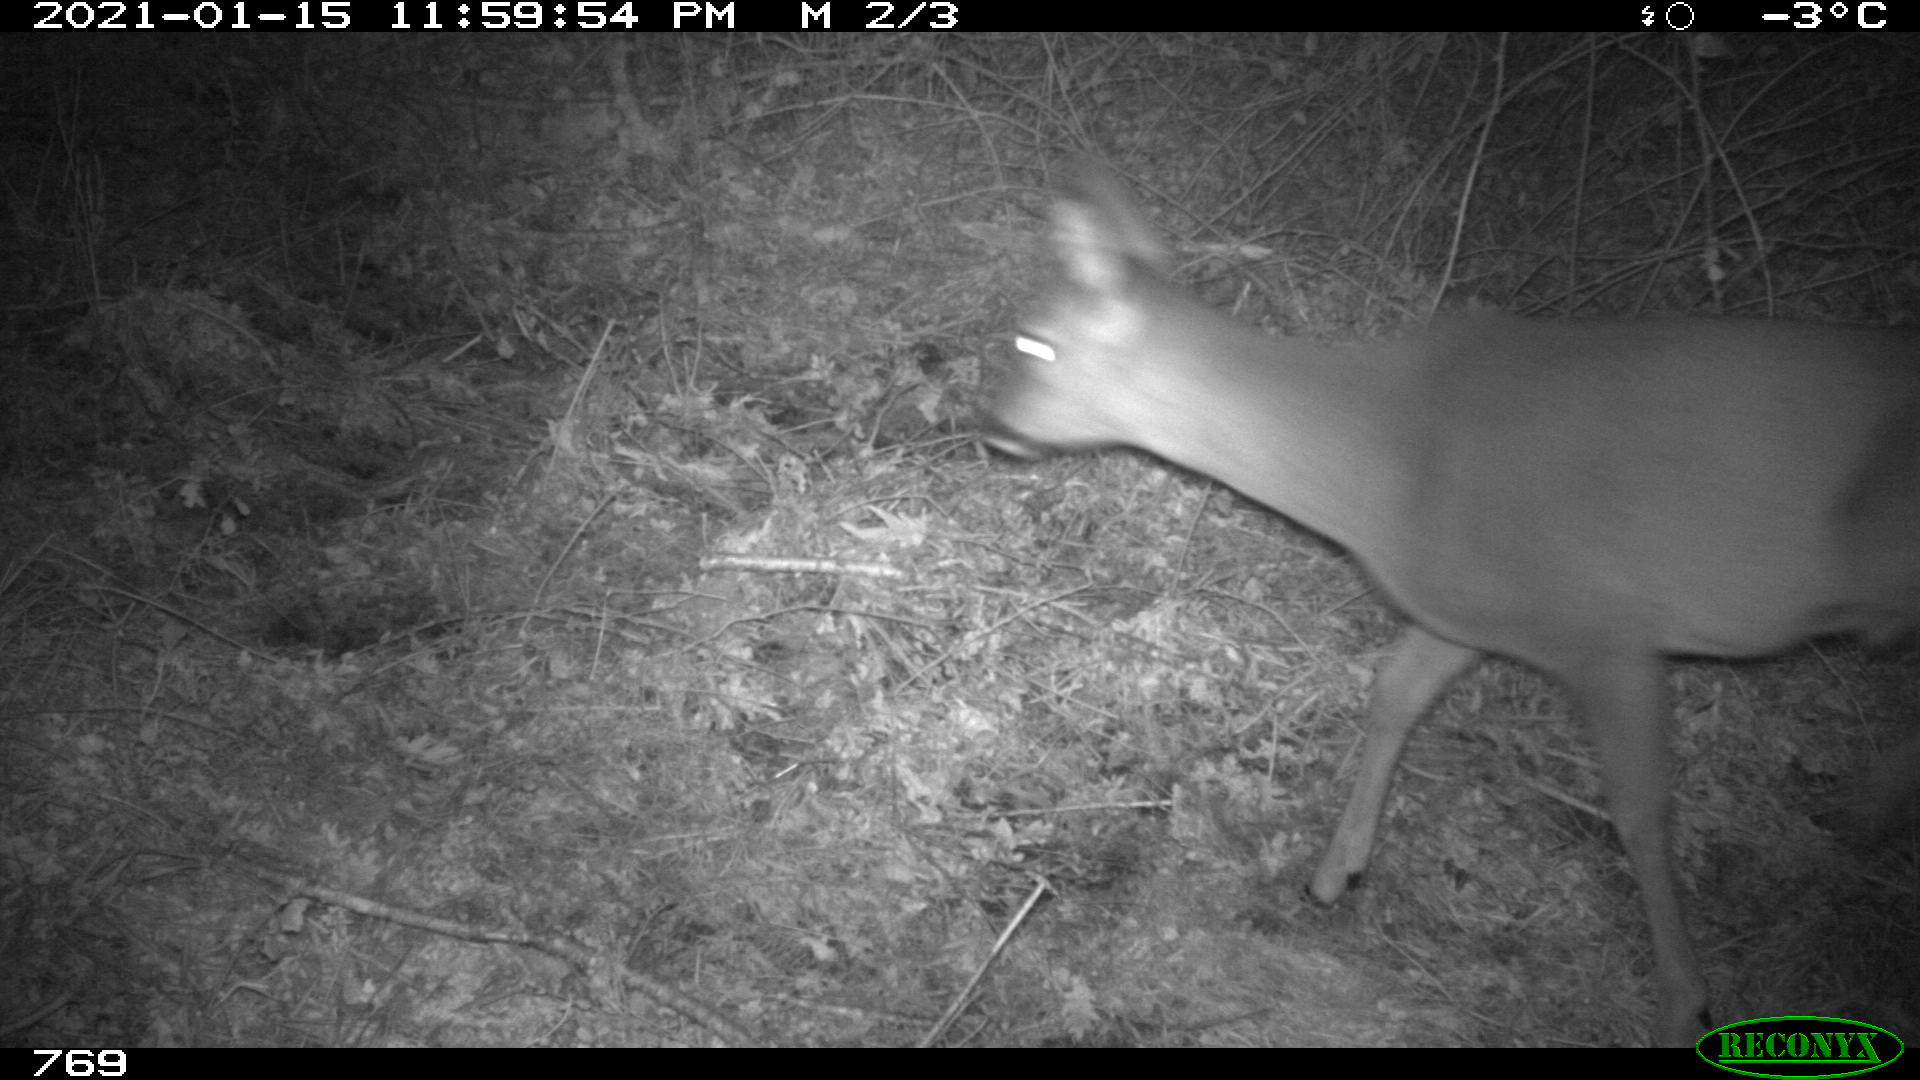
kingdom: Animalia
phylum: Chordata
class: Mammalia
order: Artiodactyla
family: Cervidae
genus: Capreolus
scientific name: Capreolus capreolus
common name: Western roe deer
